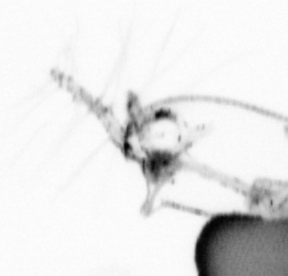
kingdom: Animalia
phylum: Arthropoda
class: Copepoda
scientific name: Copepoda
